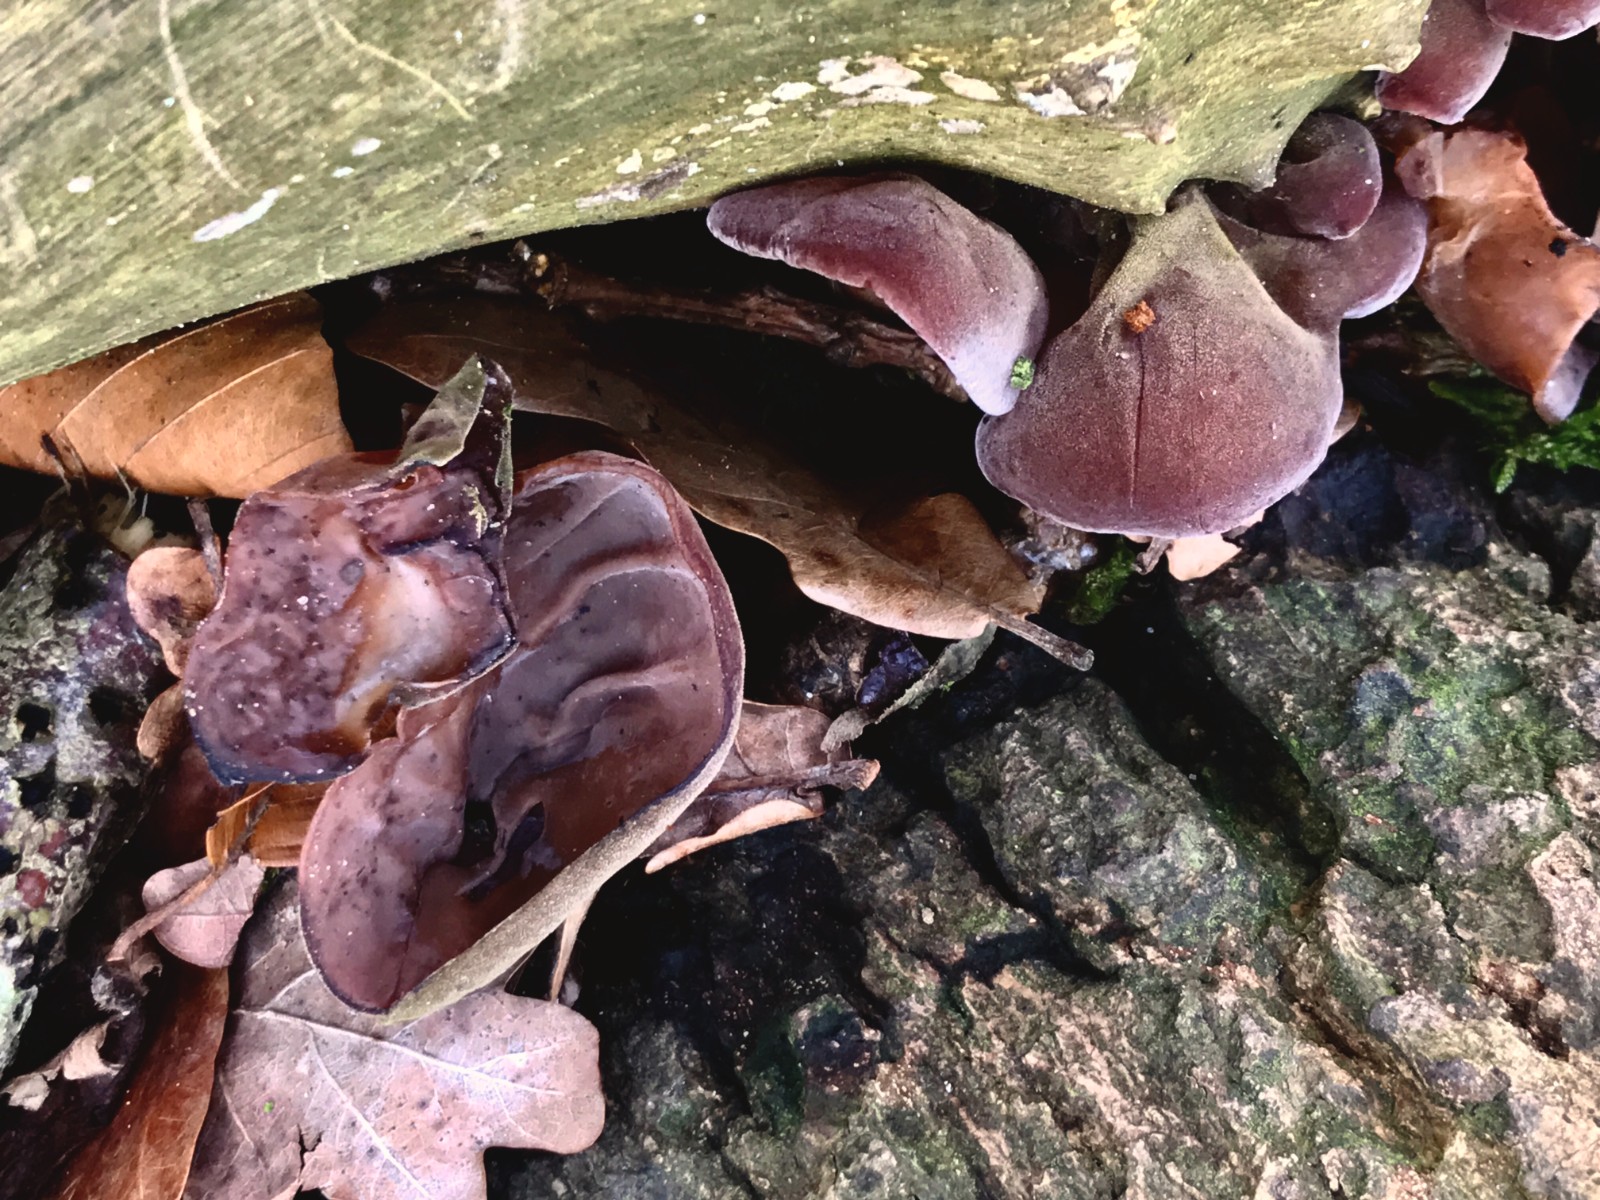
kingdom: Fungi
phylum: Basidiomycota
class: Agaricomycetes
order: Auriculariales
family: Auriculariaceae
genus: Auricularia
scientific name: Auricularia auricula-judae
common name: almindelig judasøre
